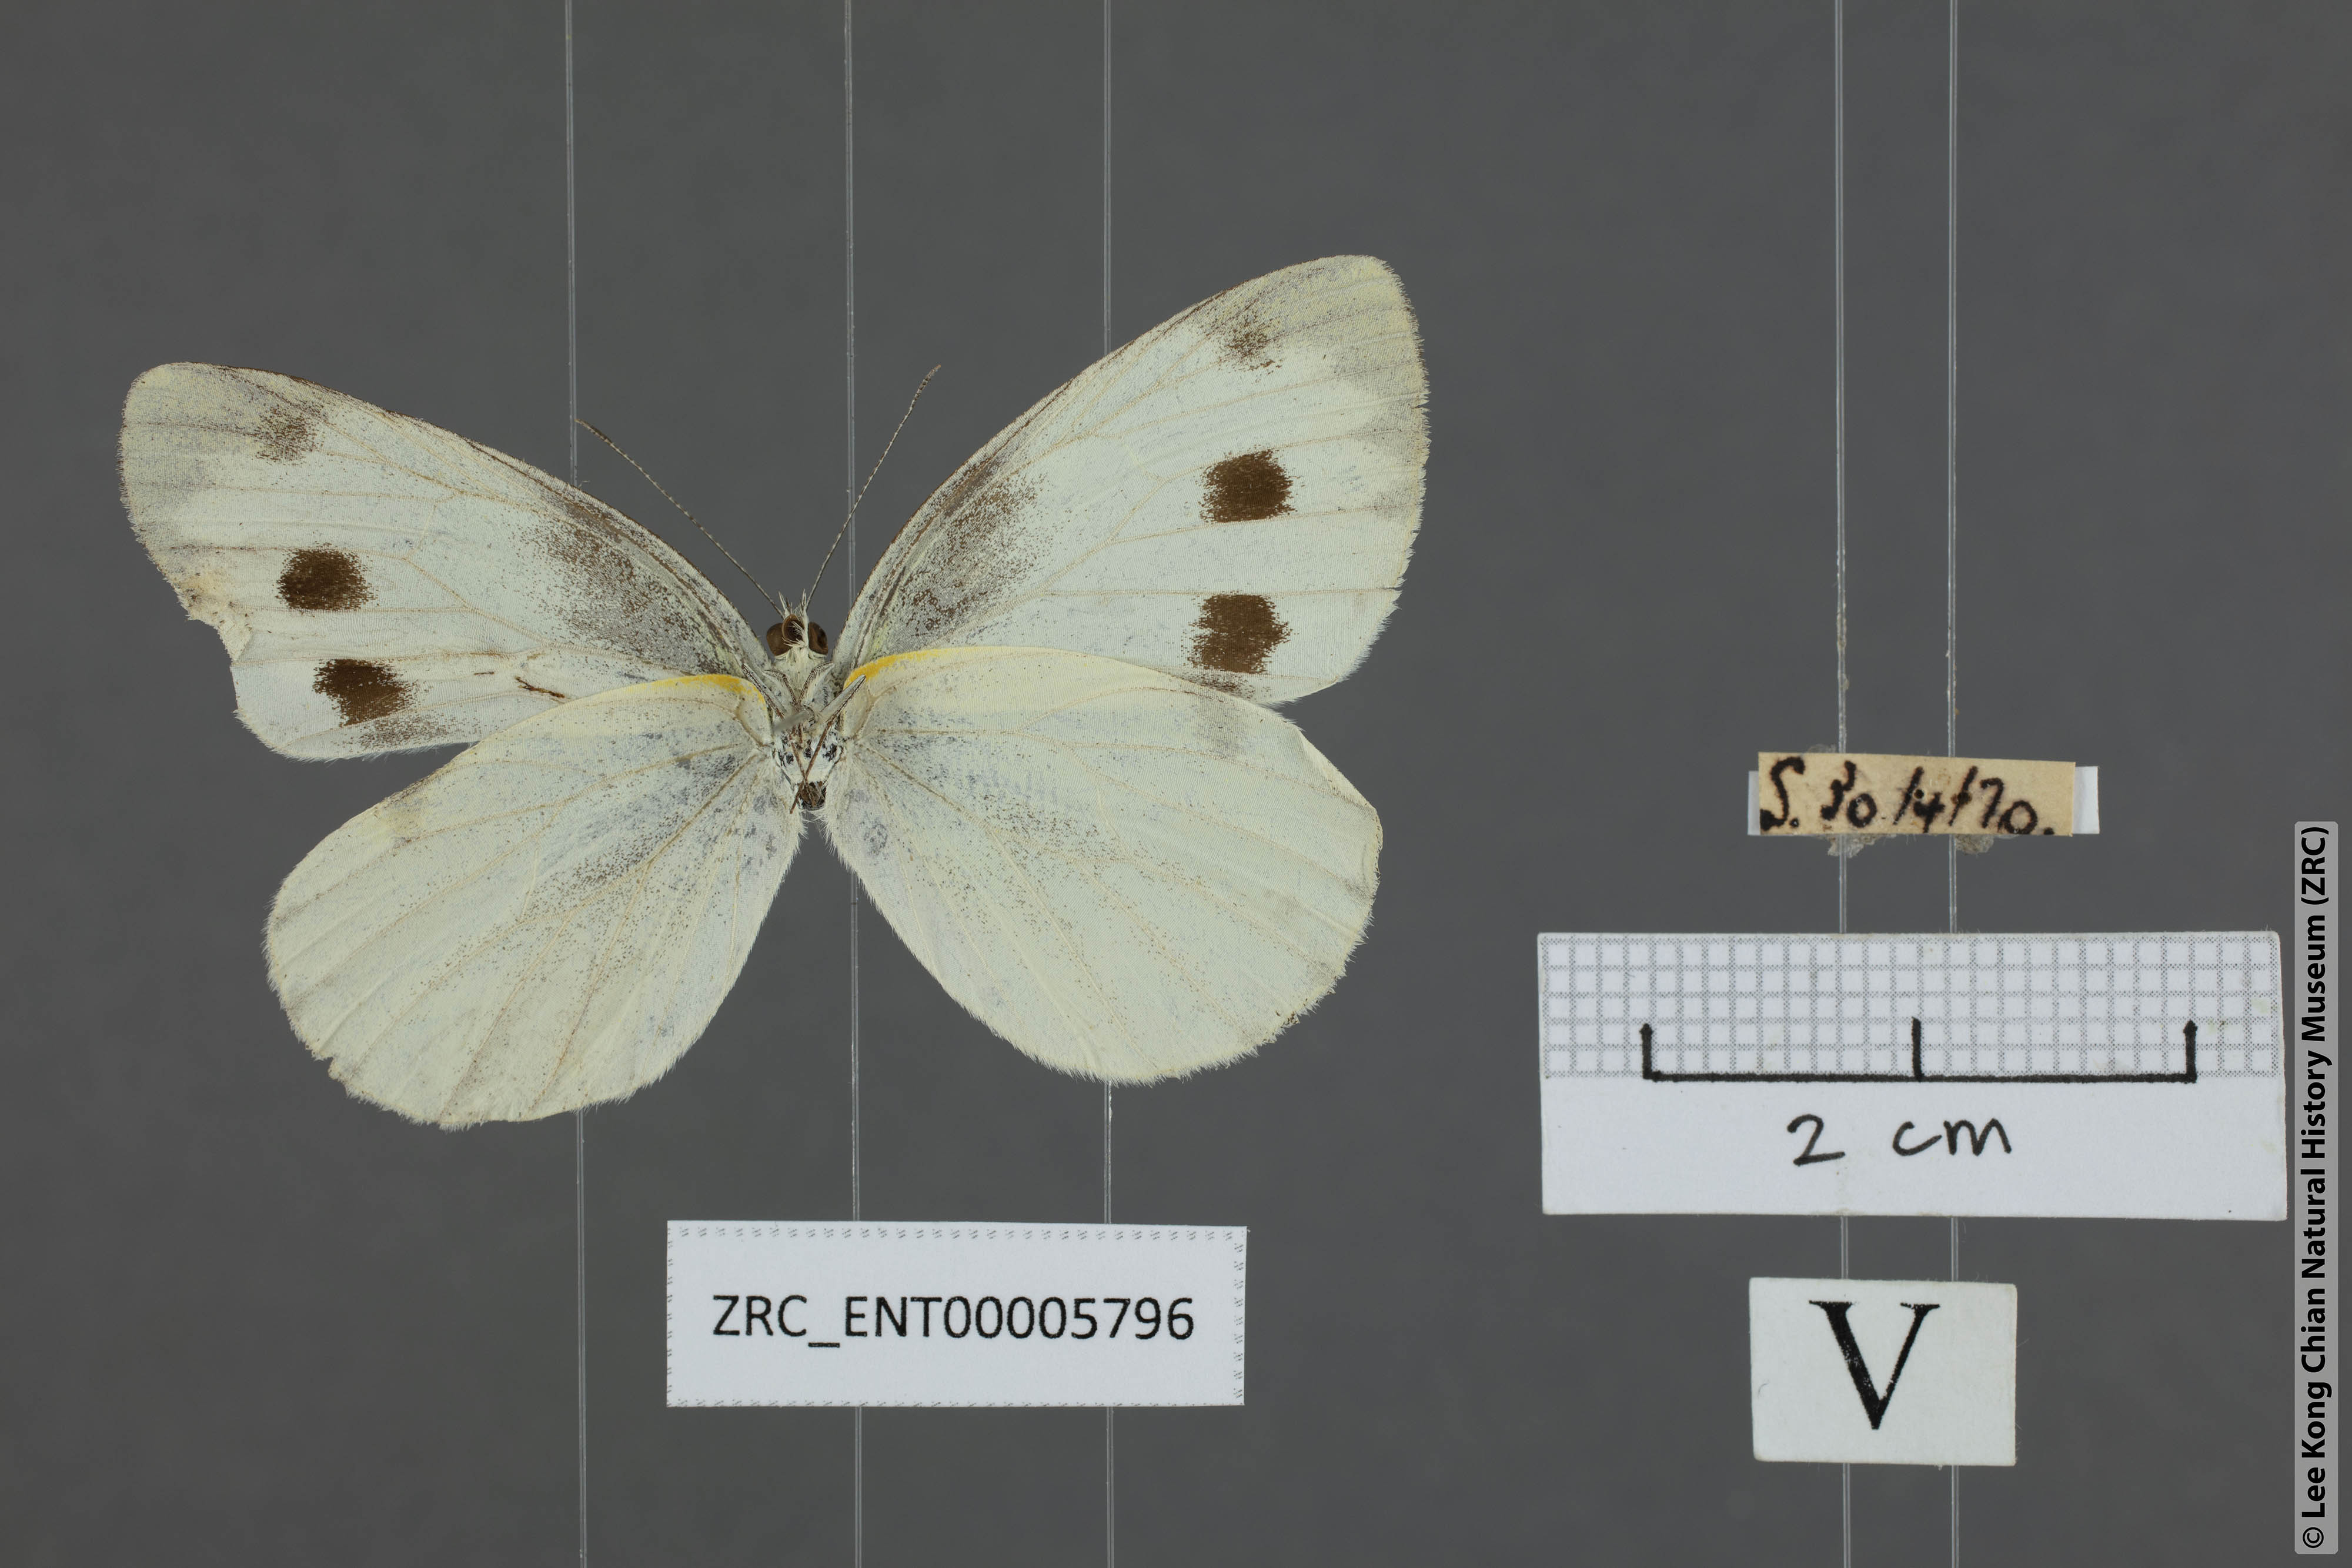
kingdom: Animalia
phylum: Arthropoda
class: Insecta
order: Lepidoptera
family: Pieridae
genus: Pieris
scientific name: Pieris canidia
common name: Indian cabbage white
